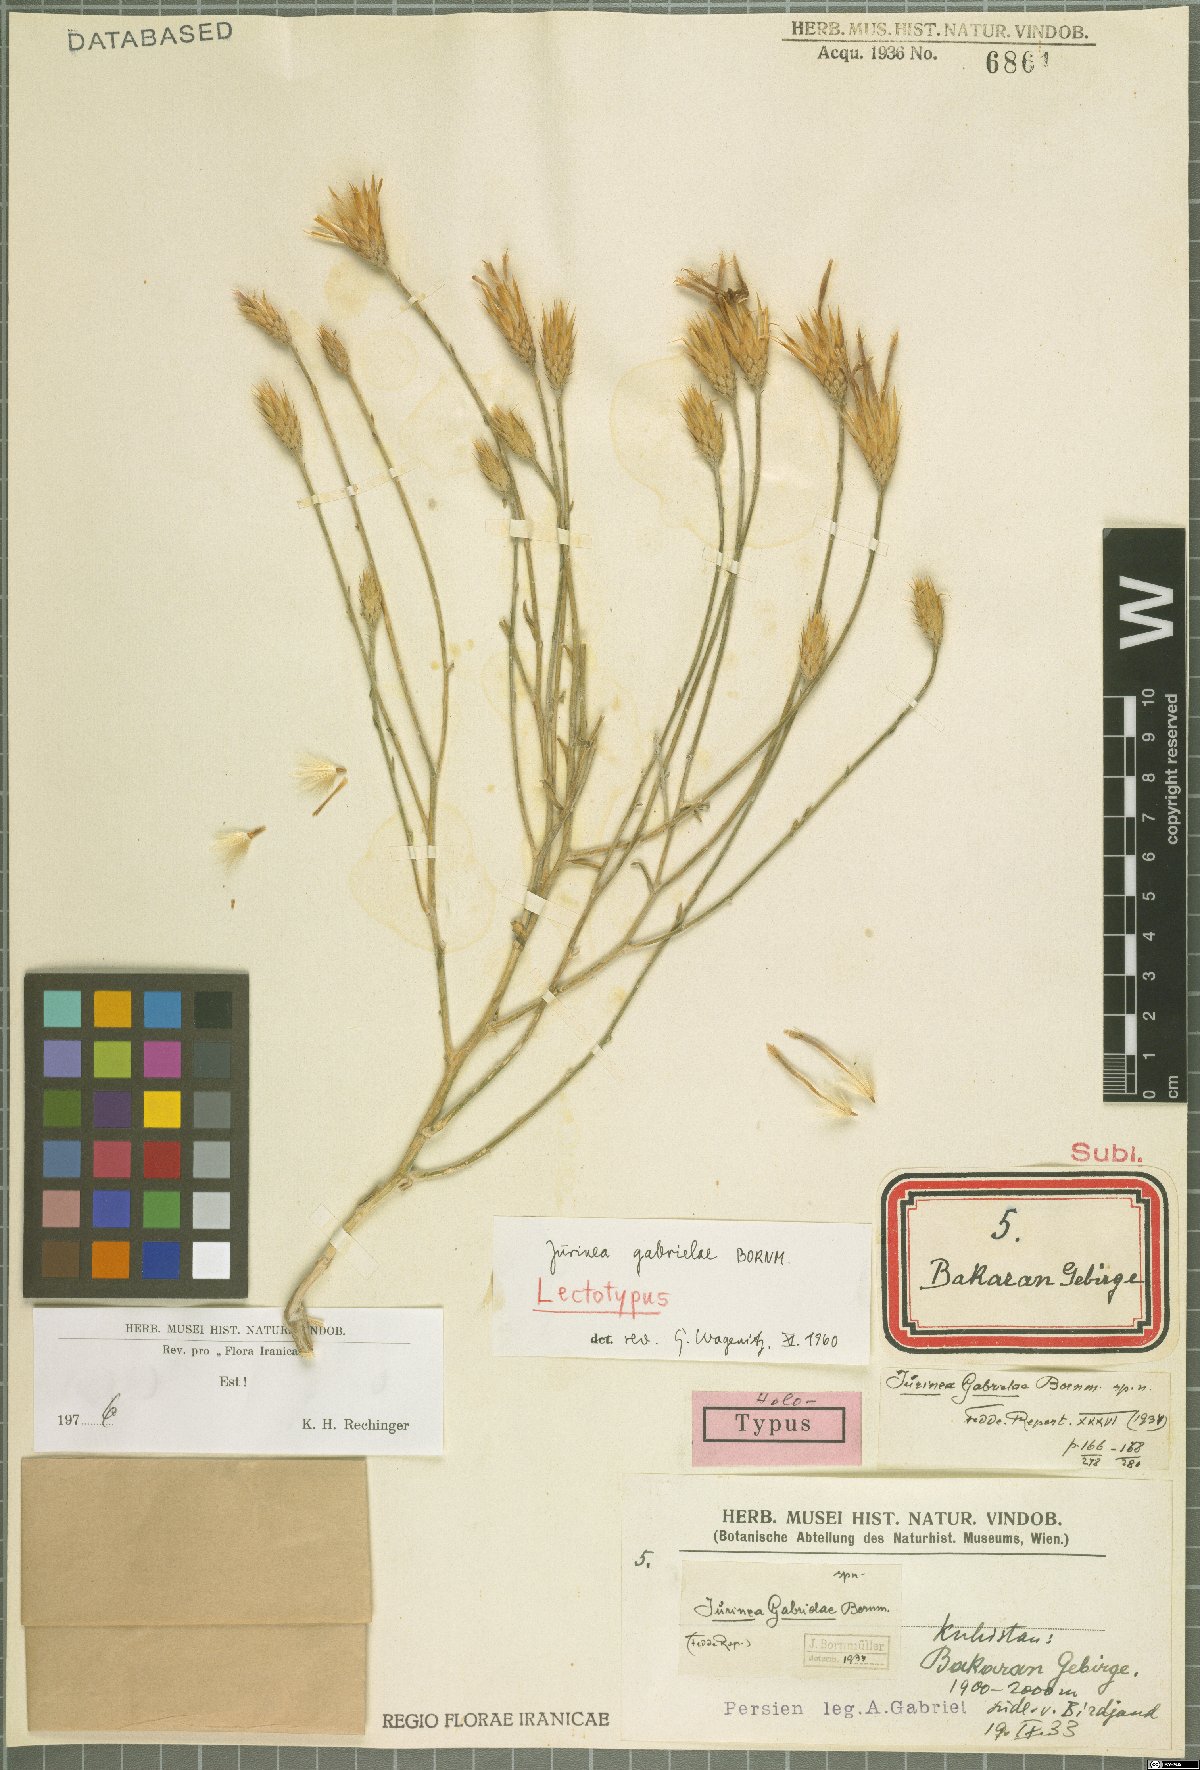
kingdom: Plantae
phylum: Tracheophyta
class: Magnoliopsida
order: Asterales
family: Asteraceae
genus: Jurinea
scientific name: Jurinea gabrielae
